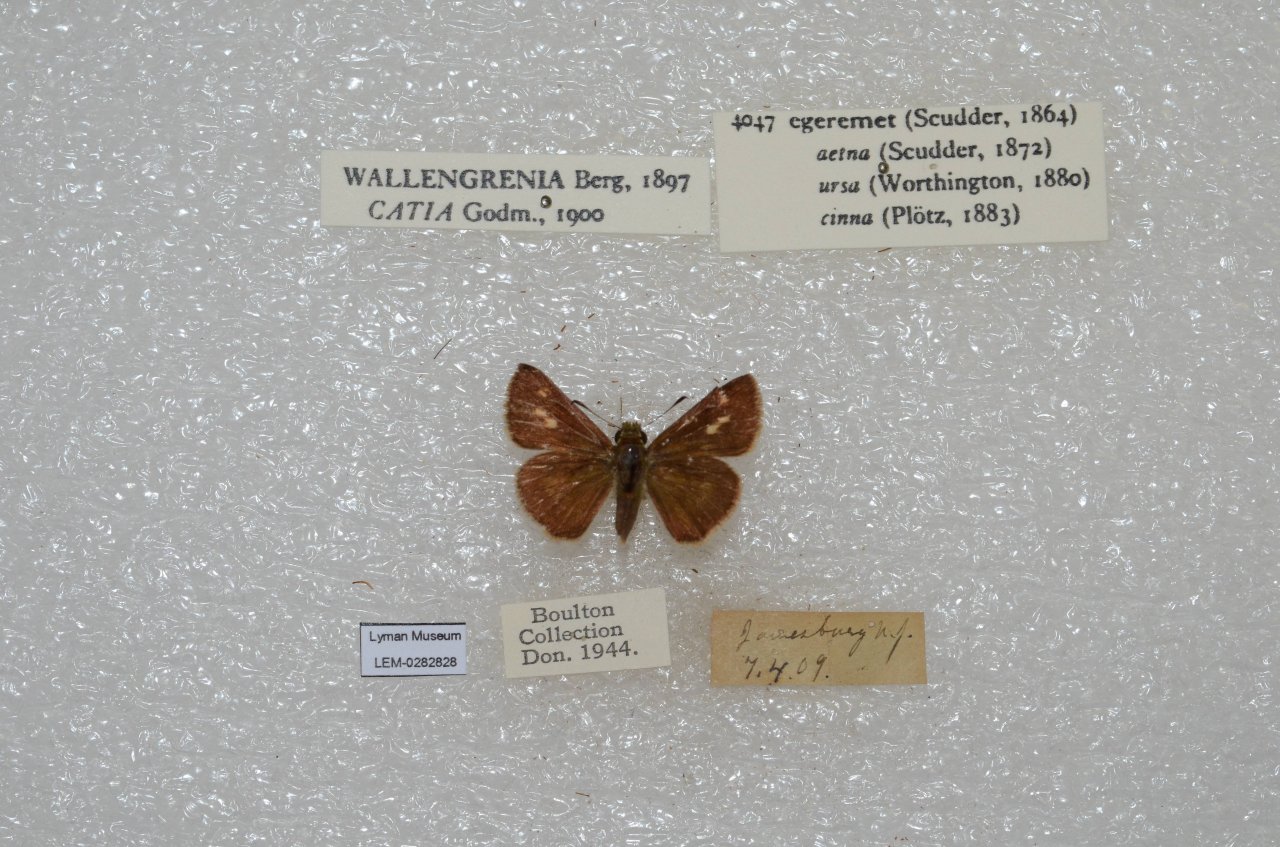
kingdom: Animalia
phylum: Arthropoda
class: Insecta
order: Lepidoptera
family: Hesperiidae
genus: Polites
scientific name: Polites egeremet
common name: Northern Broken-Dash
